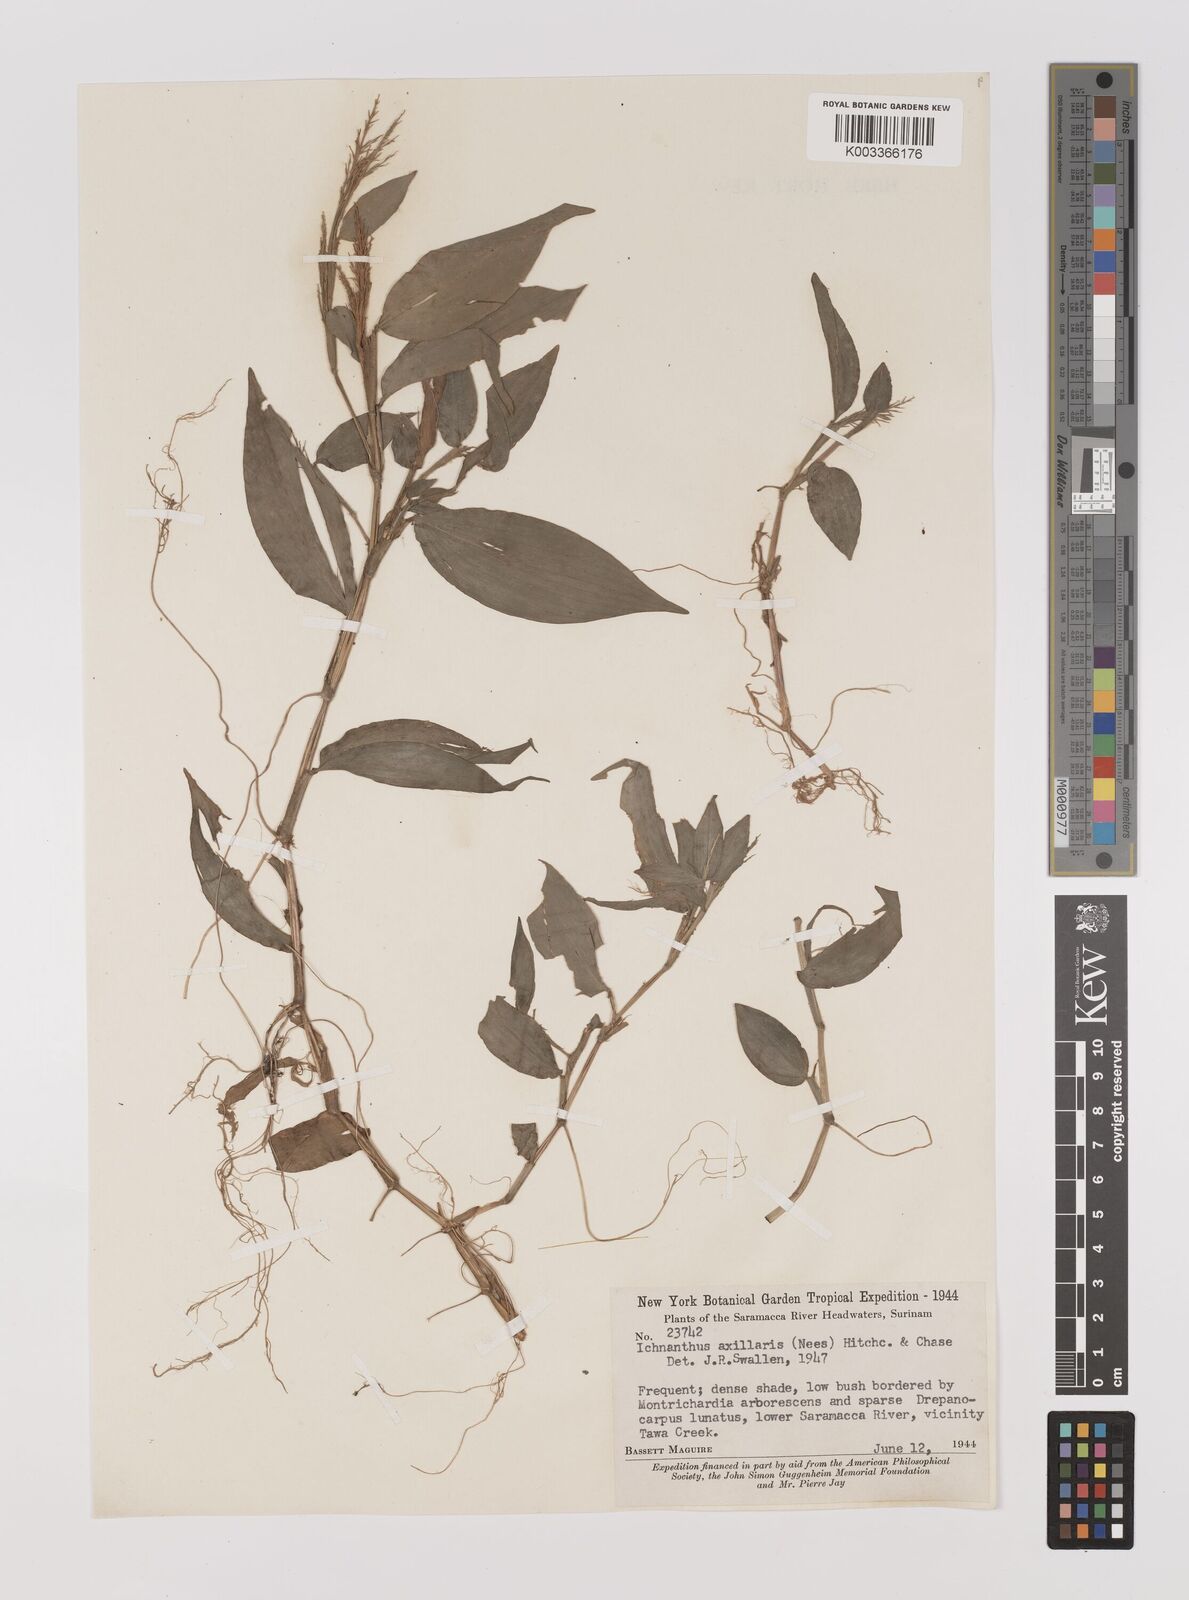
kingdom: Plantae
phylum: Tracheophyta
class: Liliopsida
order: Poales
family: Poaceae
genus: Ichnanthus
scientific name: Ichnanthus pallens
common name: Water grass
